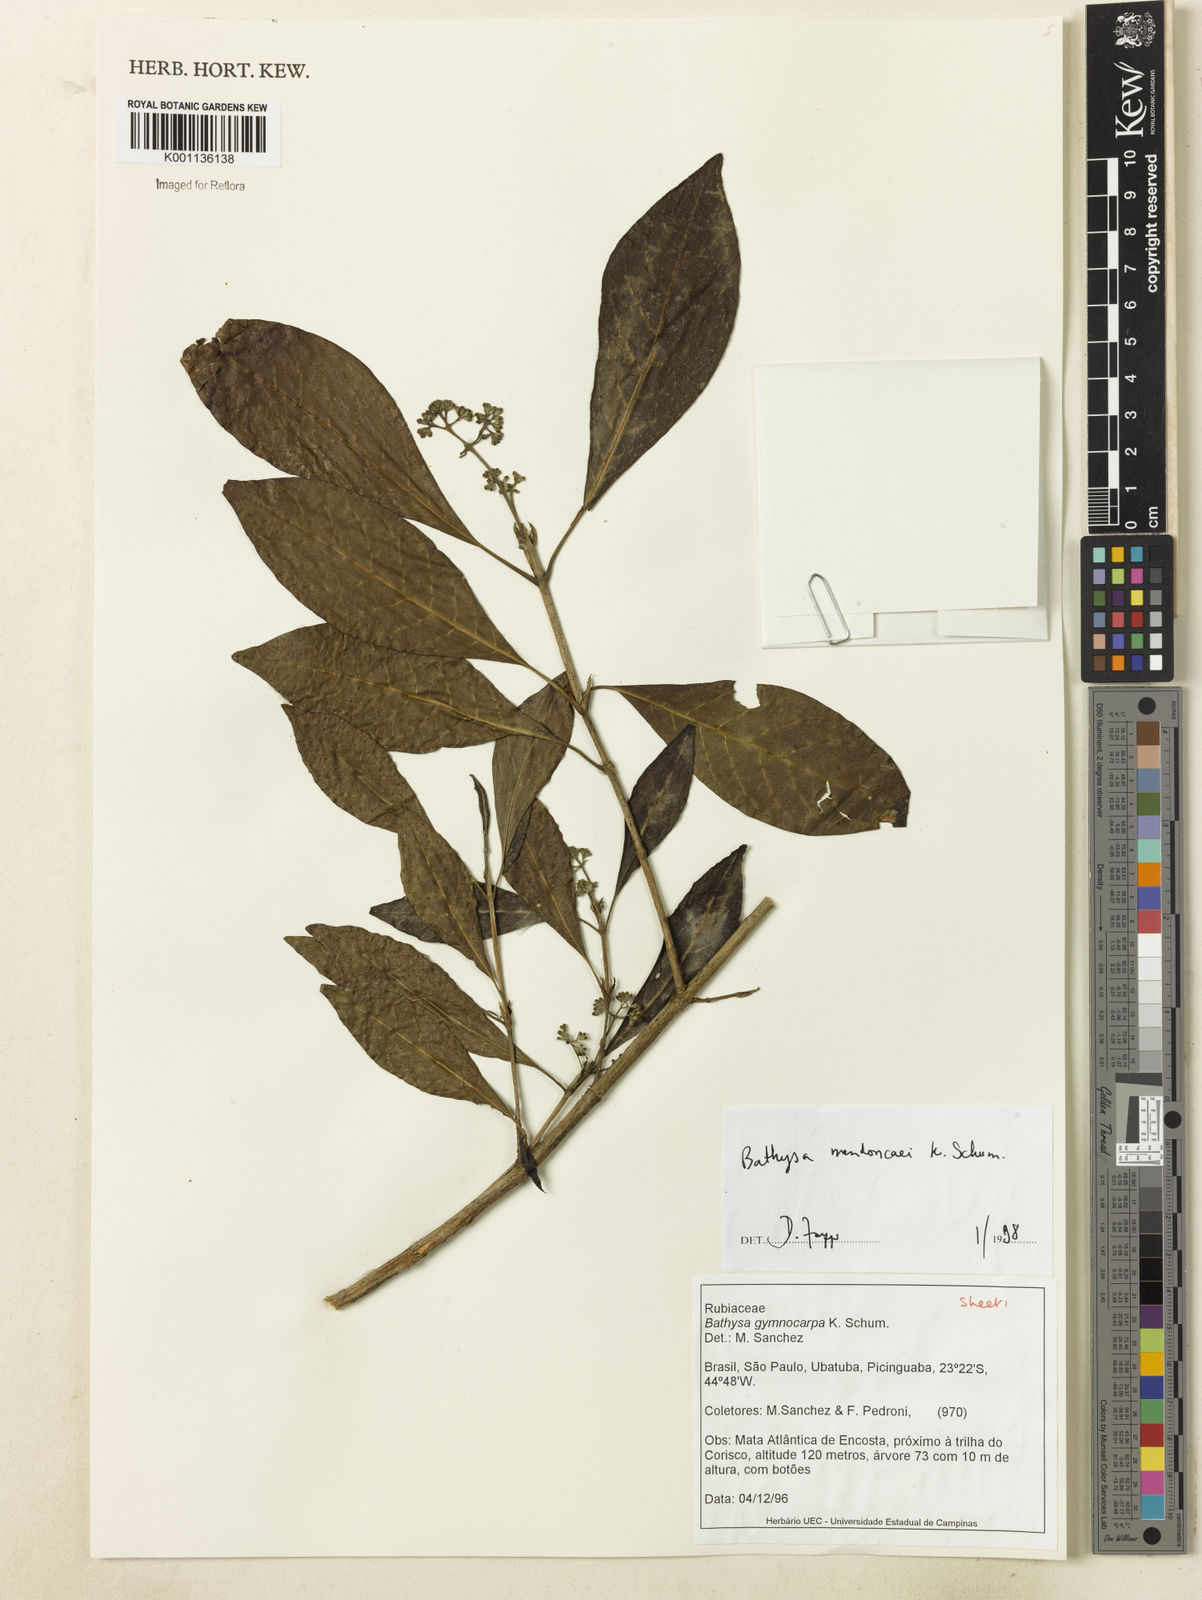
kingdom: Plantae
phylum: Tracheophyta
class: Magnoliopsida
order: Gentianales
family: Rubiaceae
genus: Bathysa
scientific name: Bathysa
